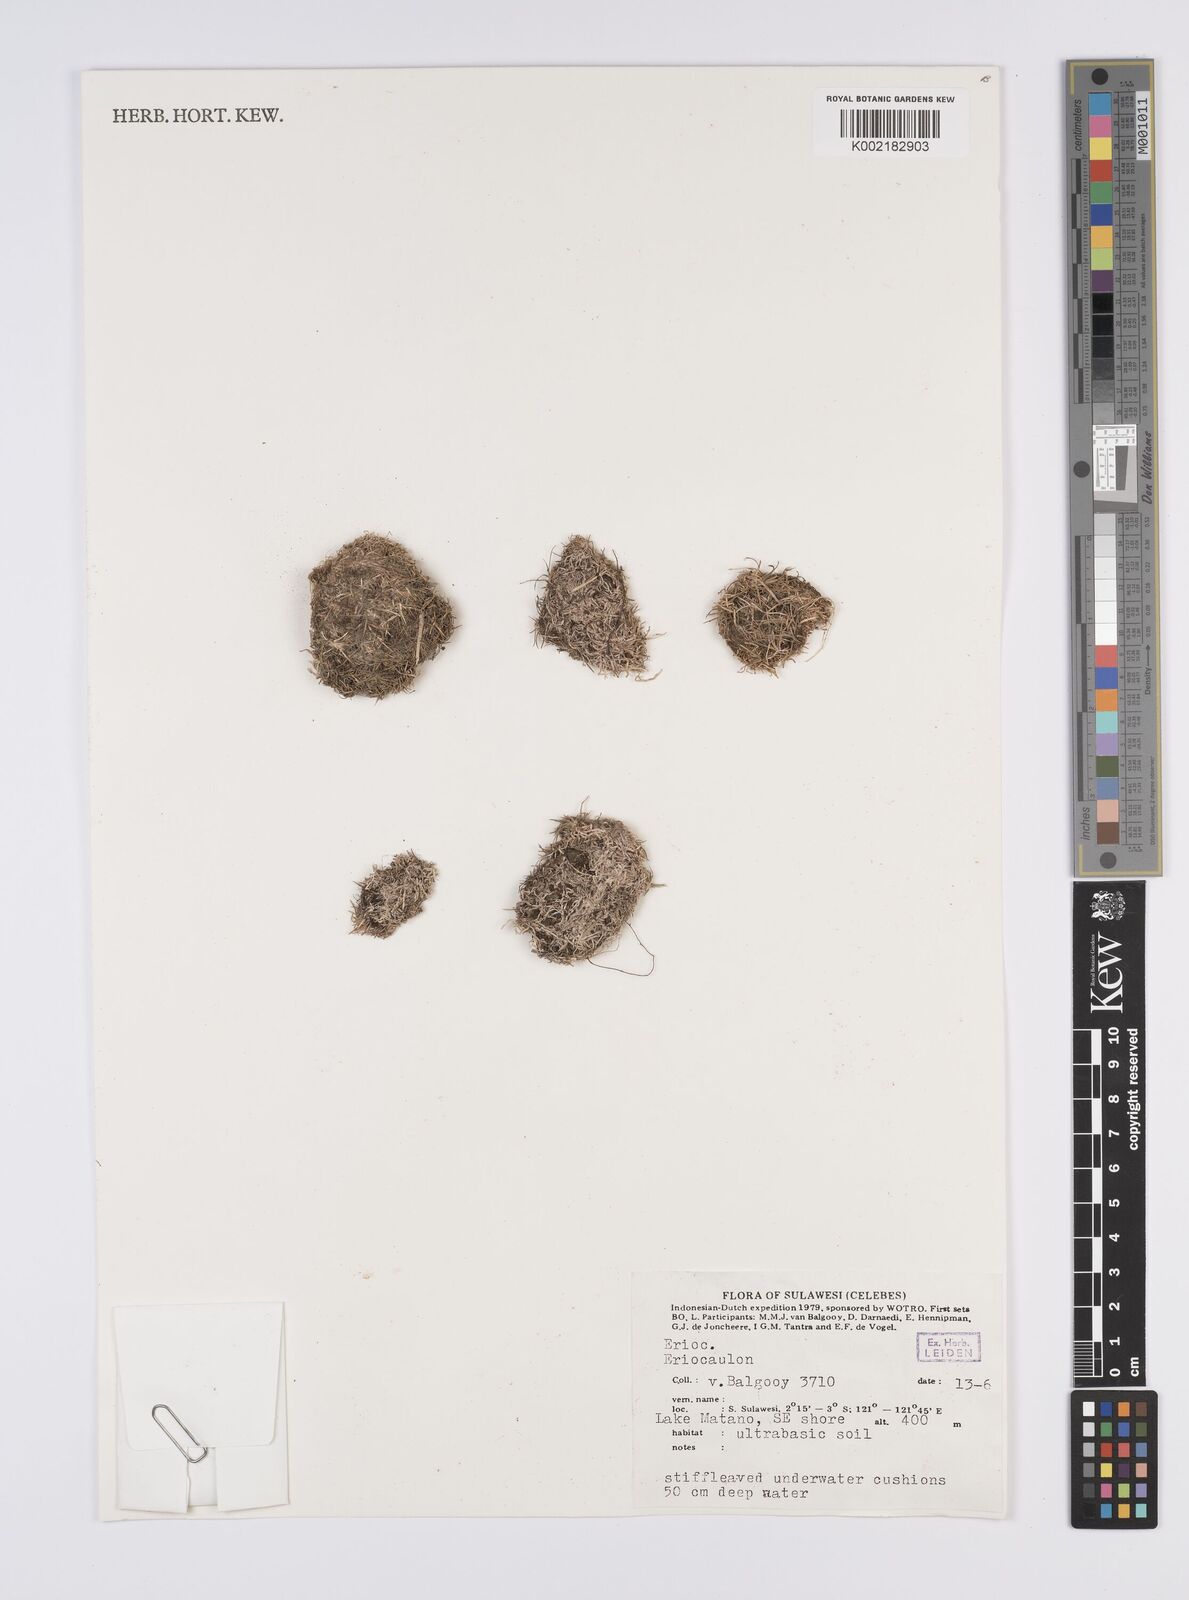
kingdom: Plantae
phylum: Tracheophyta
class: Liliopsida
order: Poales
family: Eriocaulaceae
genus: Eriocaulon
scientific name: Eriocaulon
